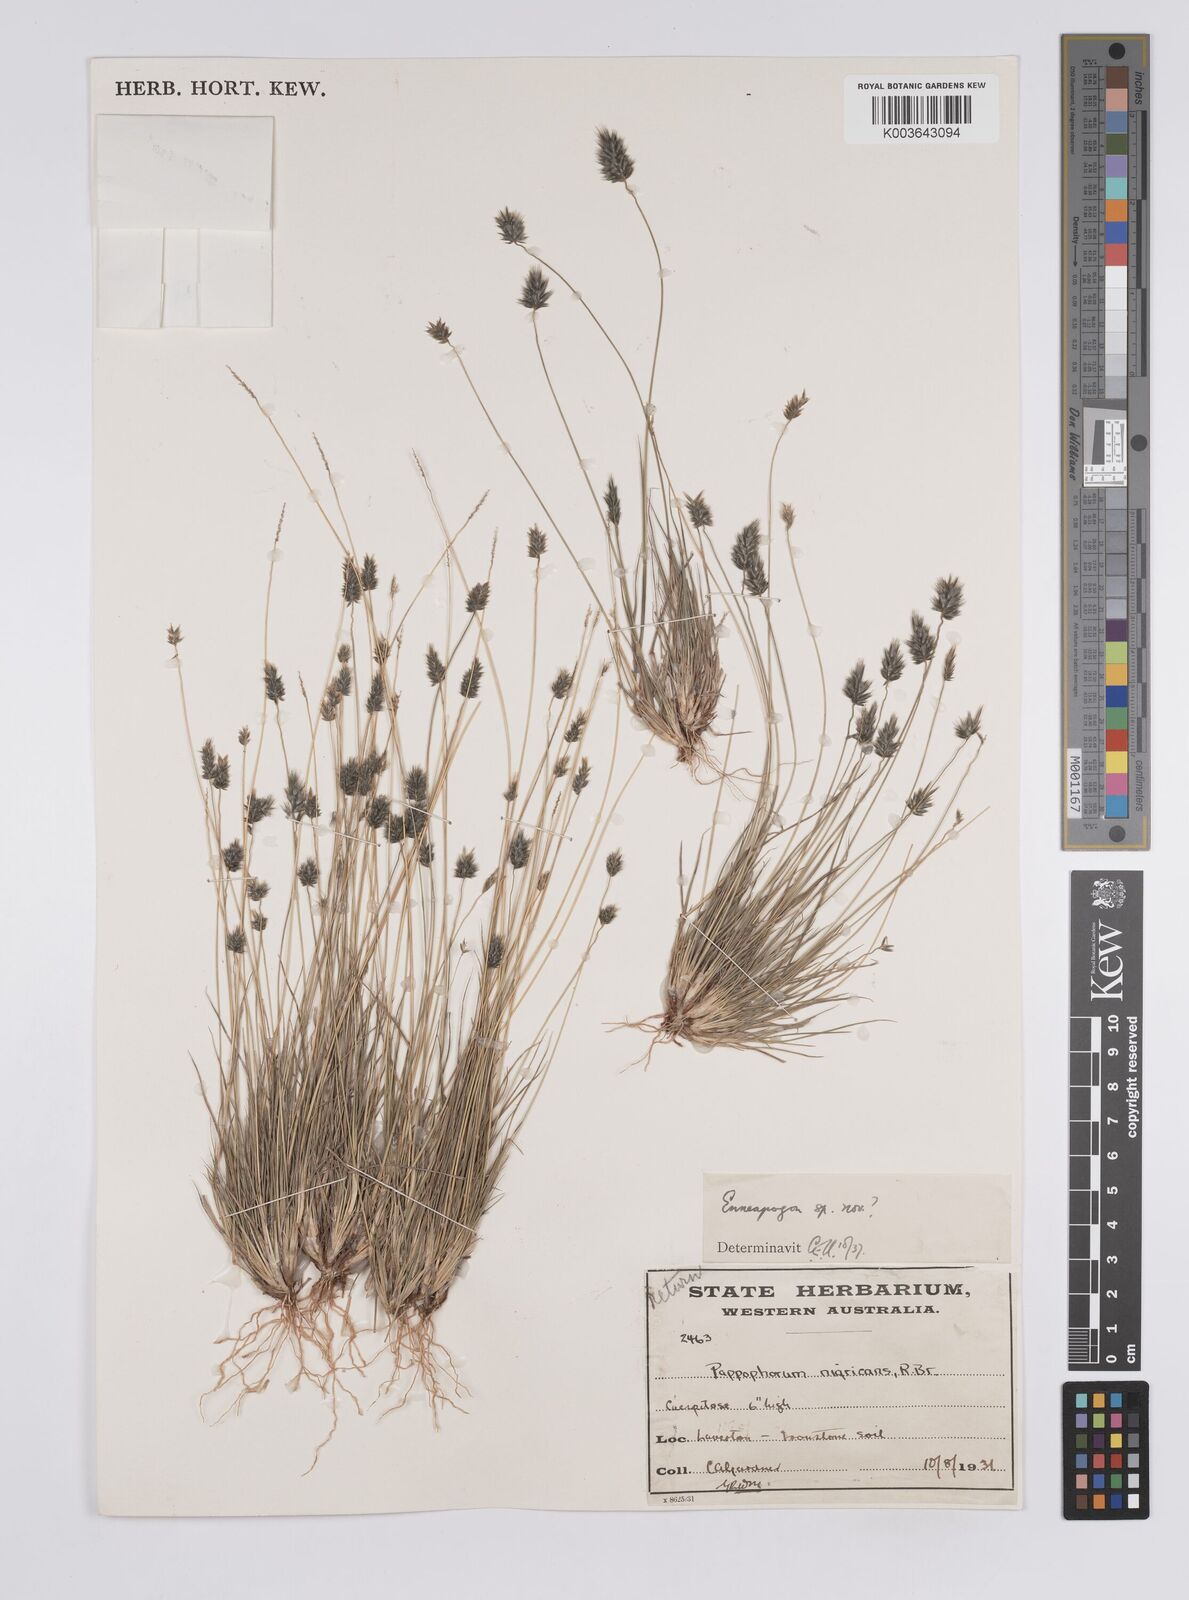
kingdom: Plantae
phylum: Tracheophyta
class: Liliopsida
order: Poales
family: Poaceae
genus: Enneapogon
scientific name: Enneapogon caerulescens
